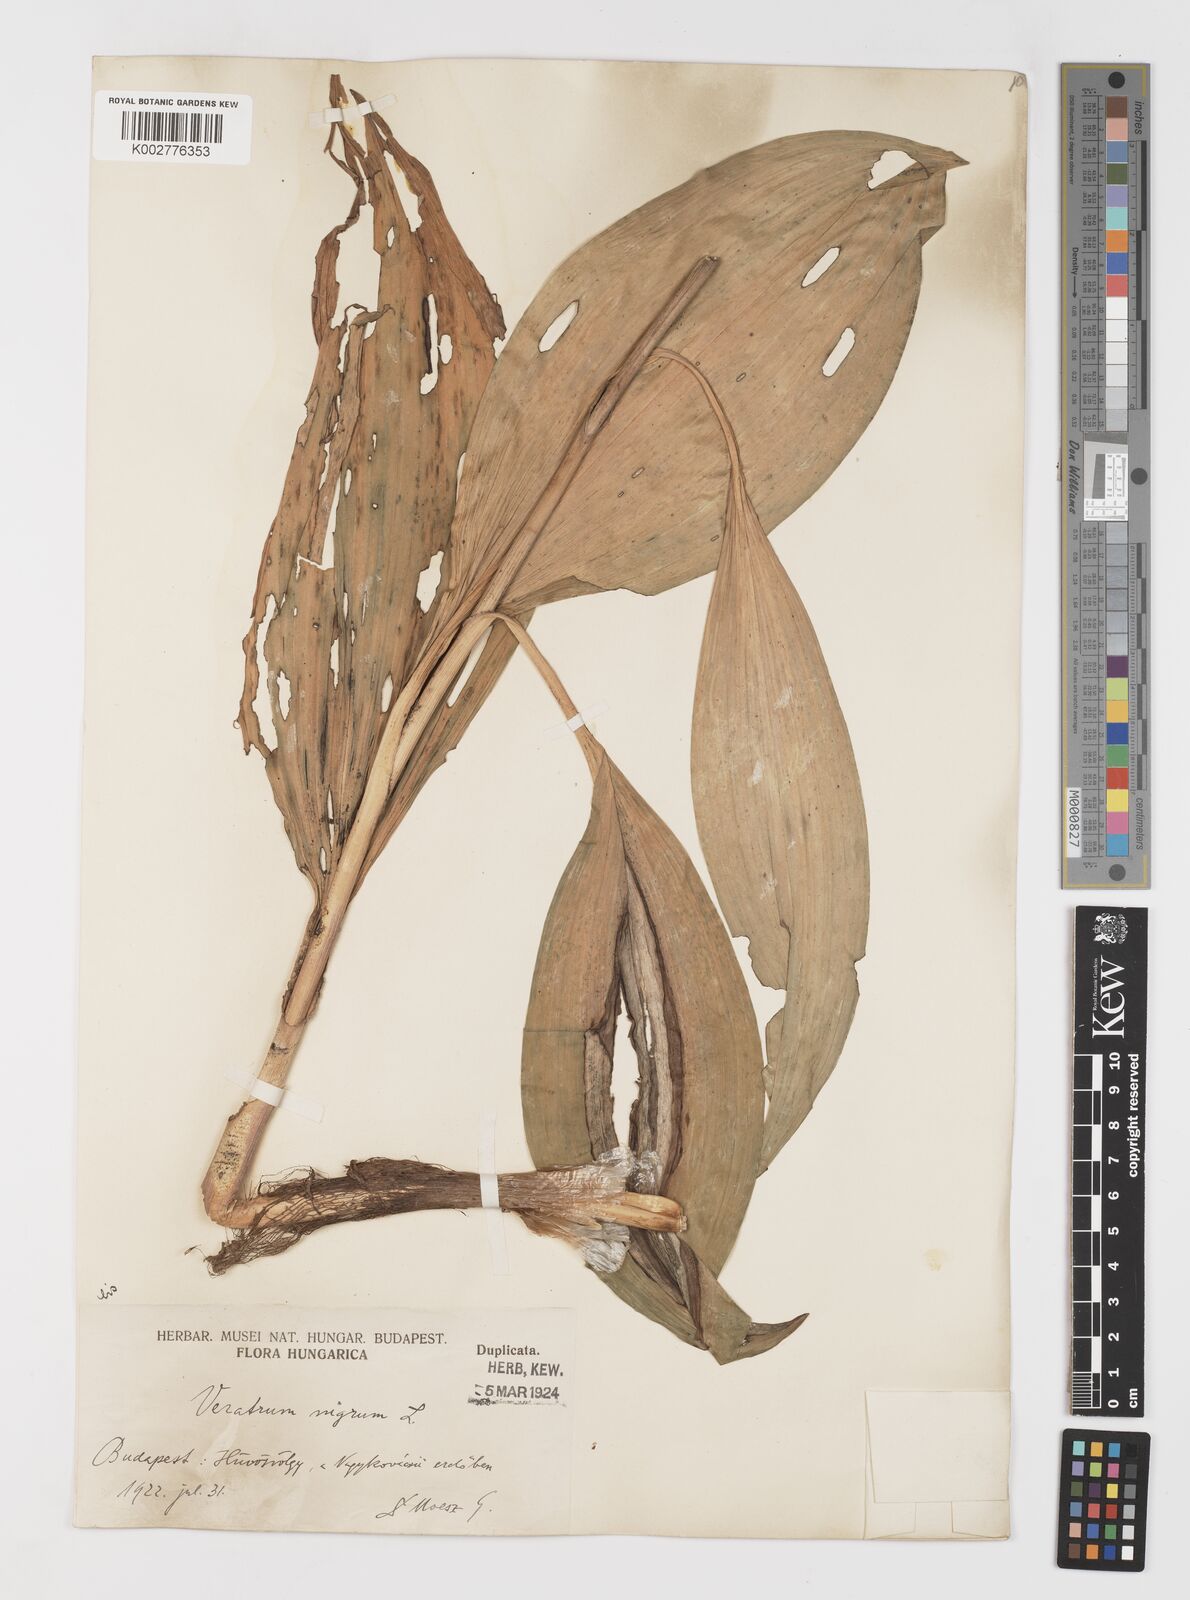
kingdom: Plantae
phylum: Tracheophyta
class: Liliopsida
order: Liliales
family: Melanthiaceae
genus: Veratrum
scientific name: Veratrum nigrum
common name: Black veratrum
